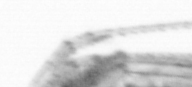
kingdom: Animalia
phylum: Arthropoda
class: Copepoda
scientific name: Copepoda
